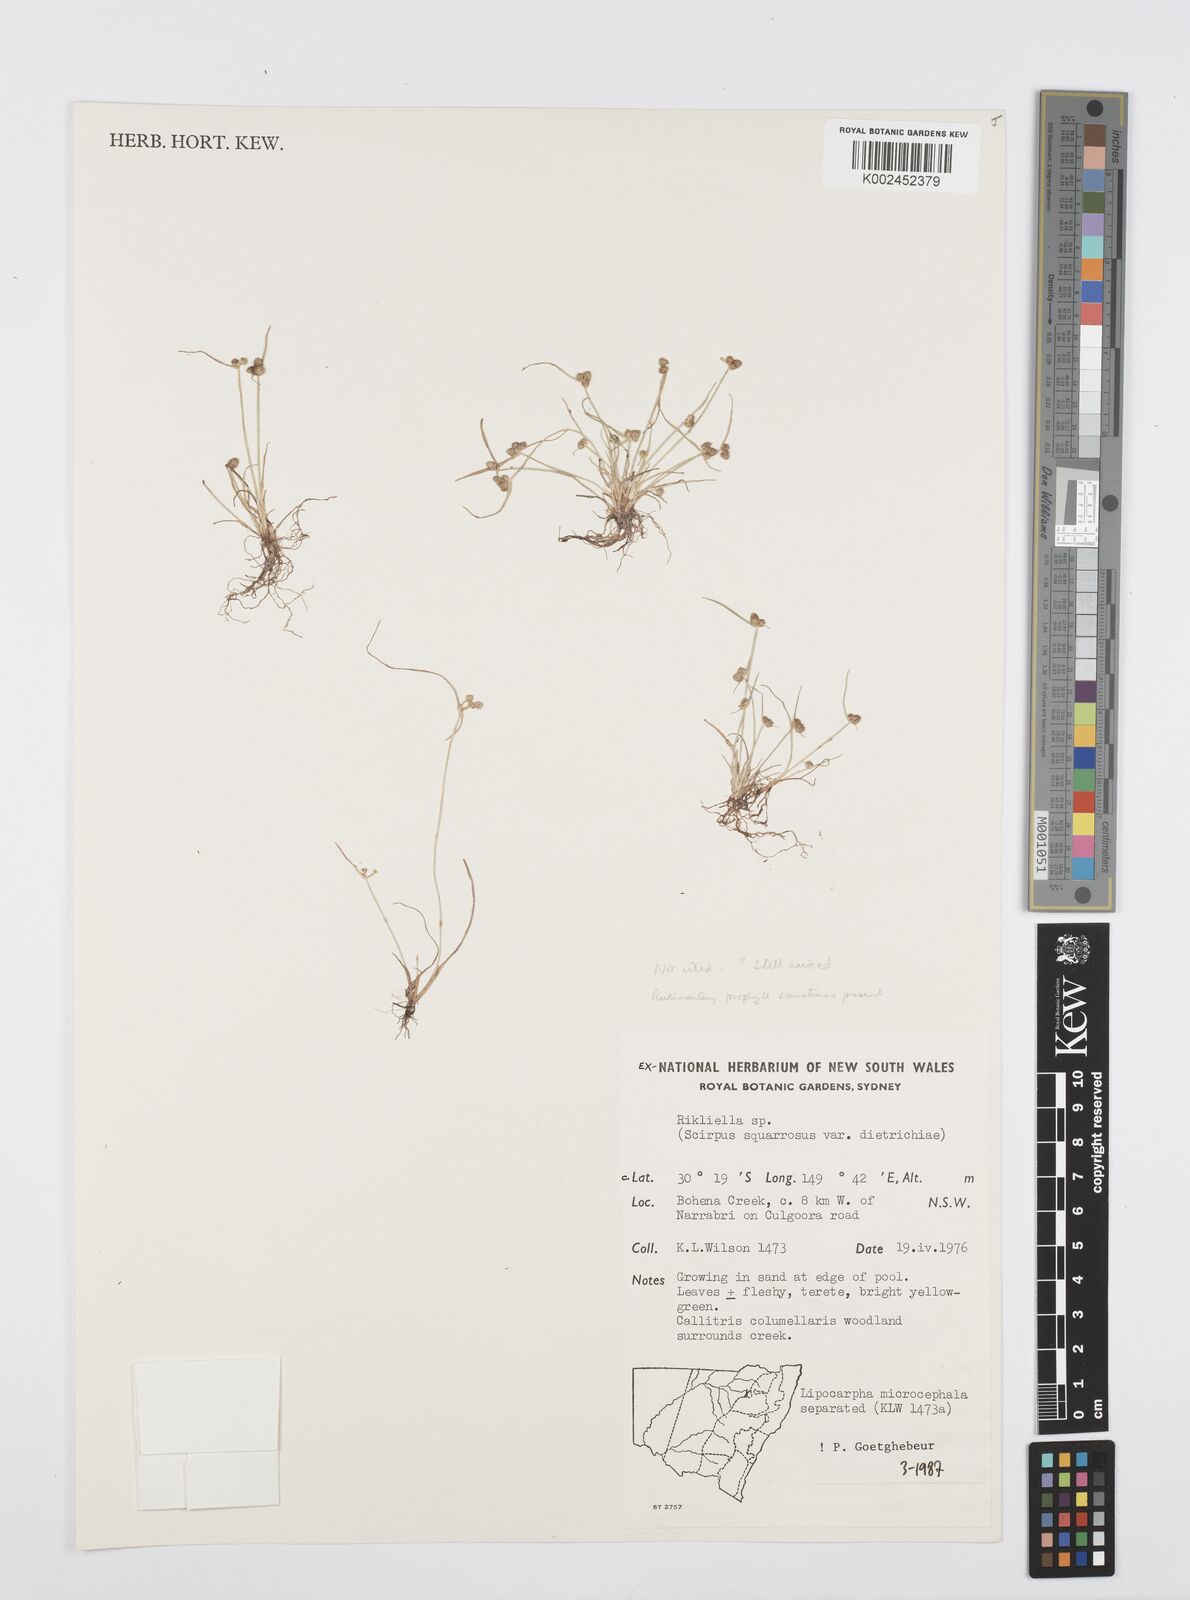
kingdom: Plantae
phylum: Tracheophyta
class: Liliopsida
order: Poales
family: Cyperaceae
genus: Cyperus
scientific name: Cyperus microcephalus
